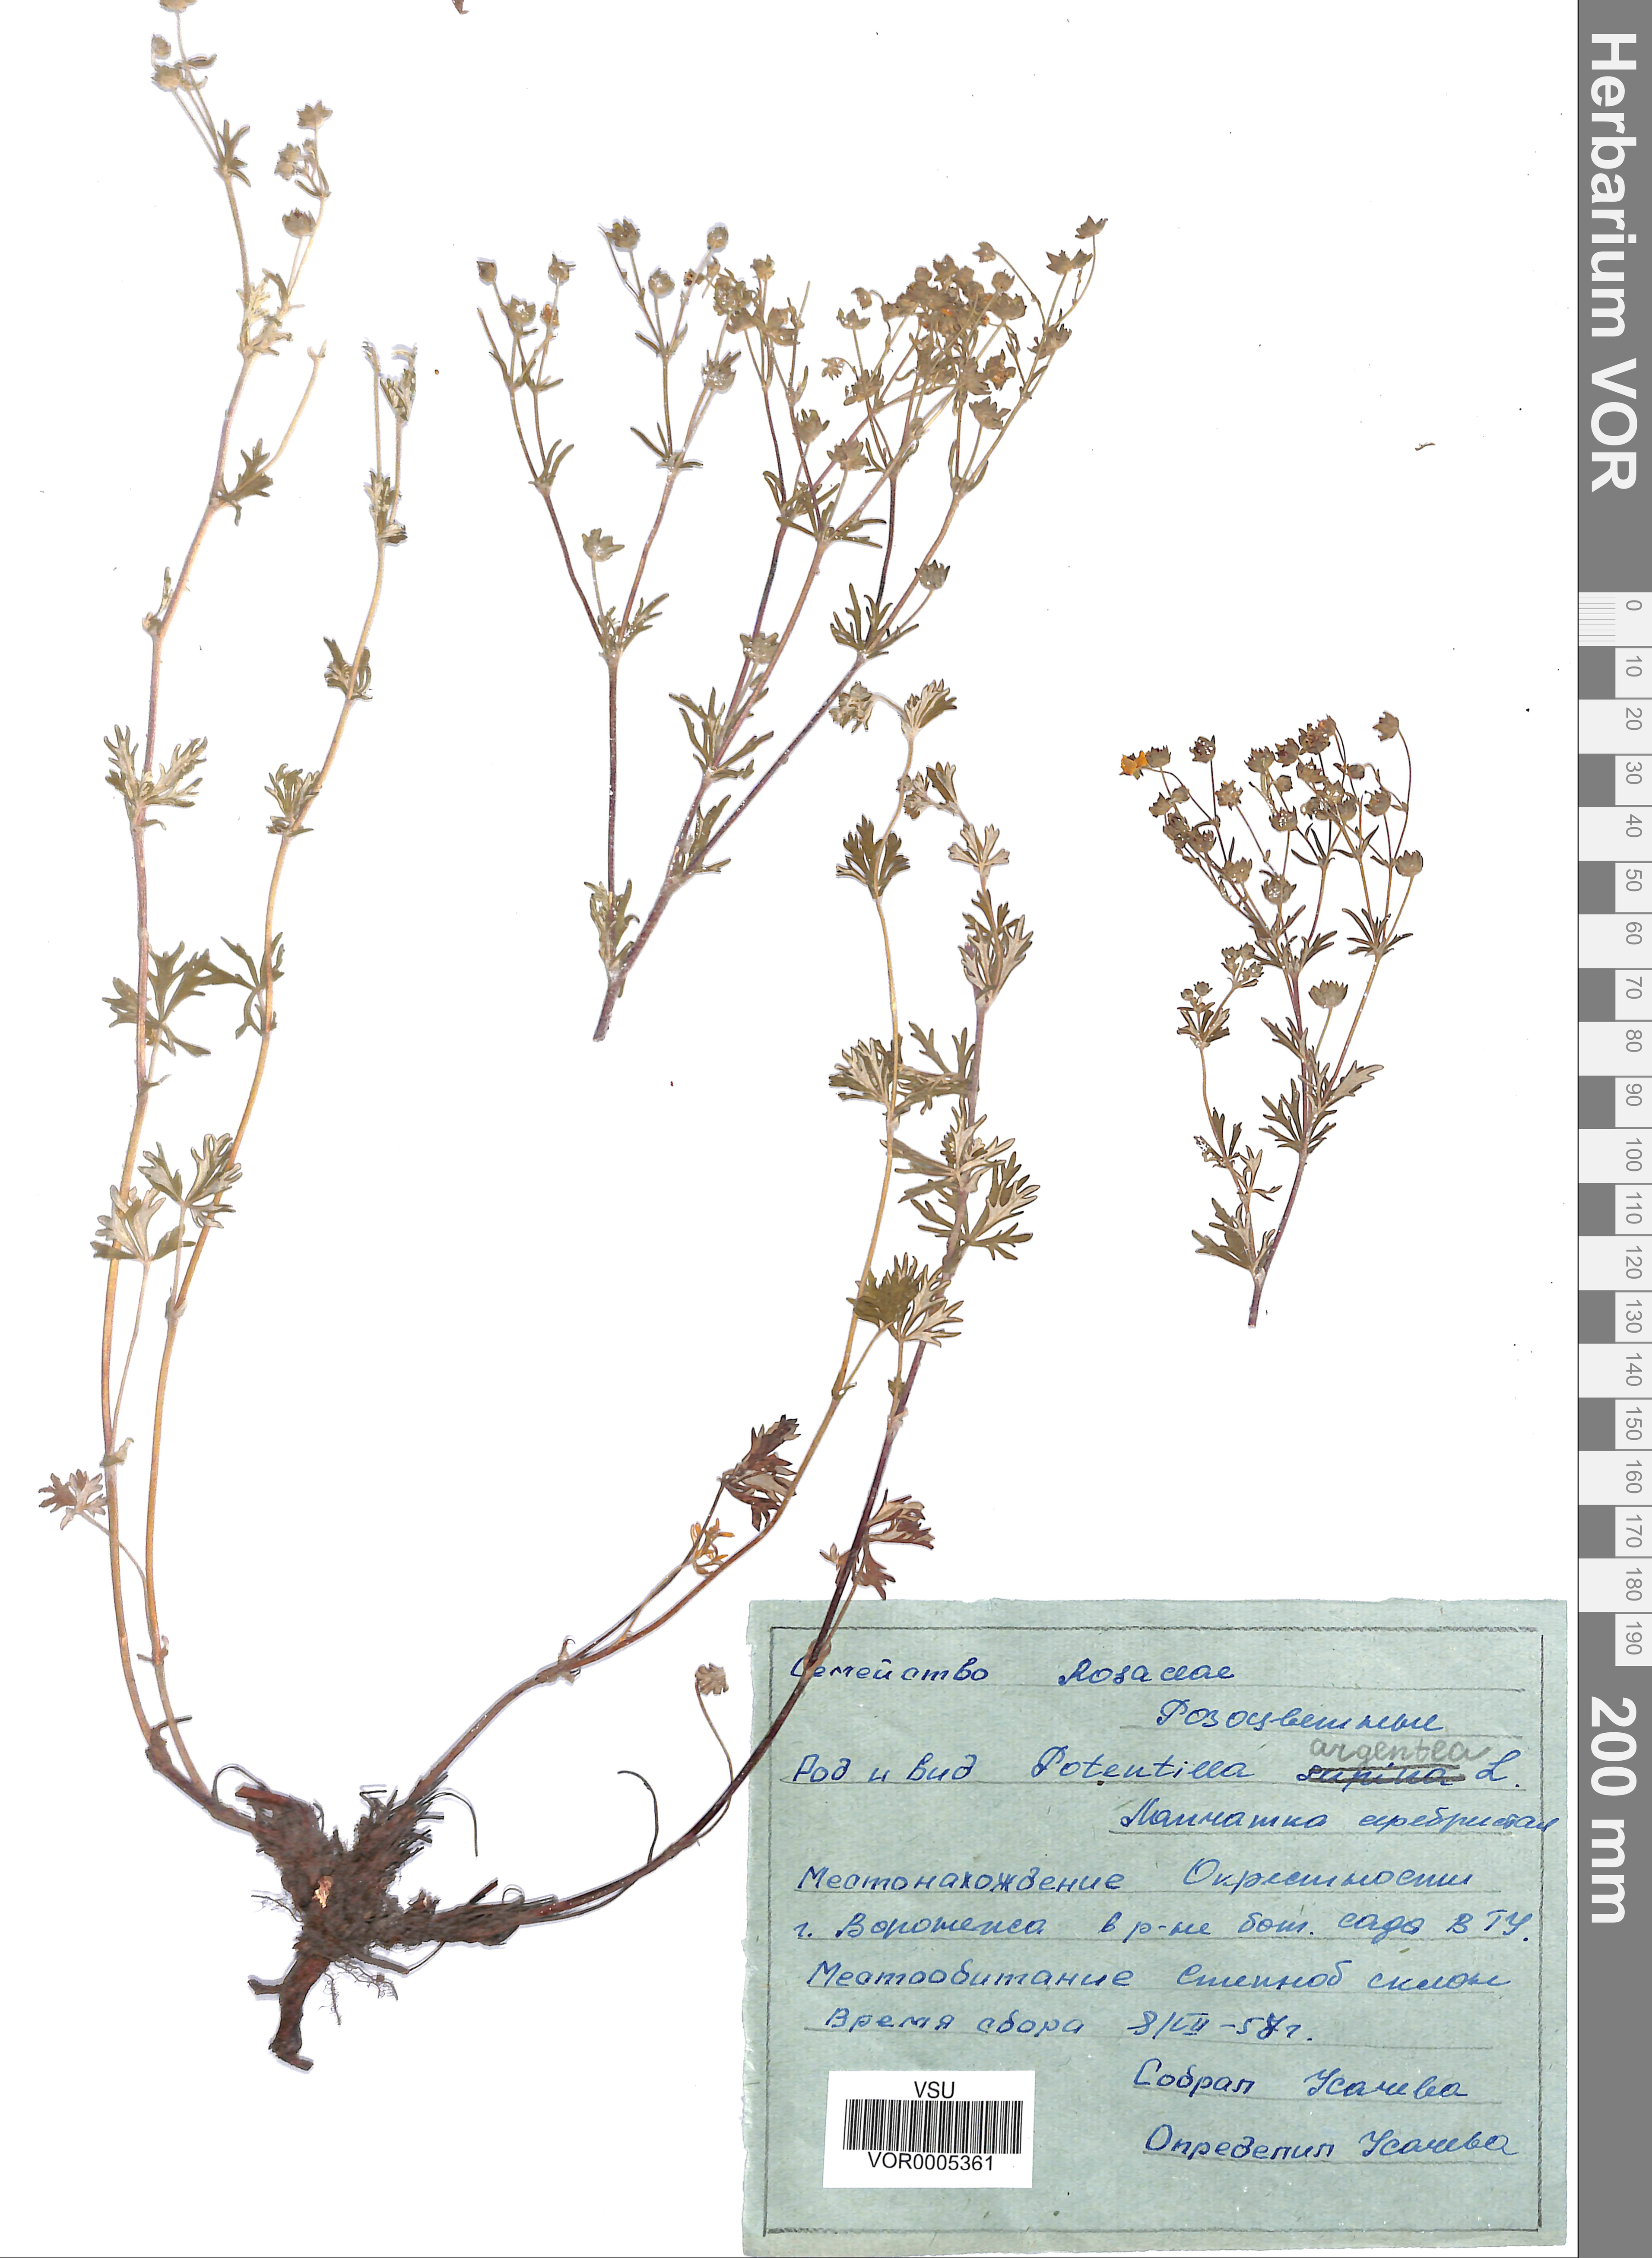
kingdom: Plantae
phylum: Tracheophyta
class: Magnoliopsida
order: Rosales
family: Rosaceae
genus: Potentilla
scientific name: Potentilla argentea
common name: Hoary cinquefoil
